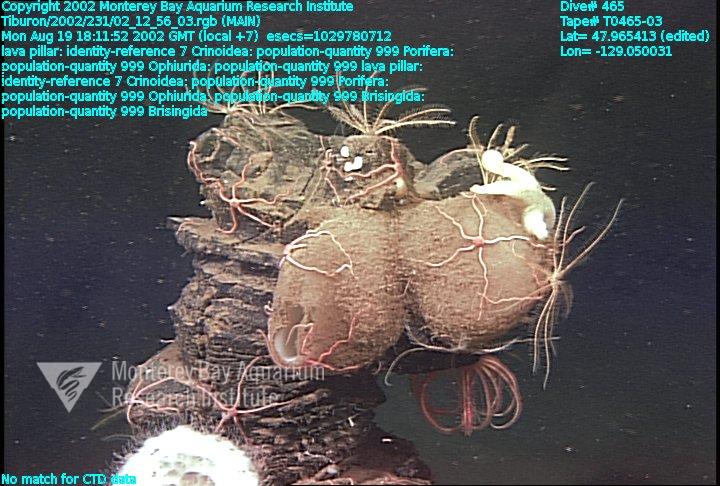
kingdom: Animalia
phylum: Porifera
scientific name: Porifera
